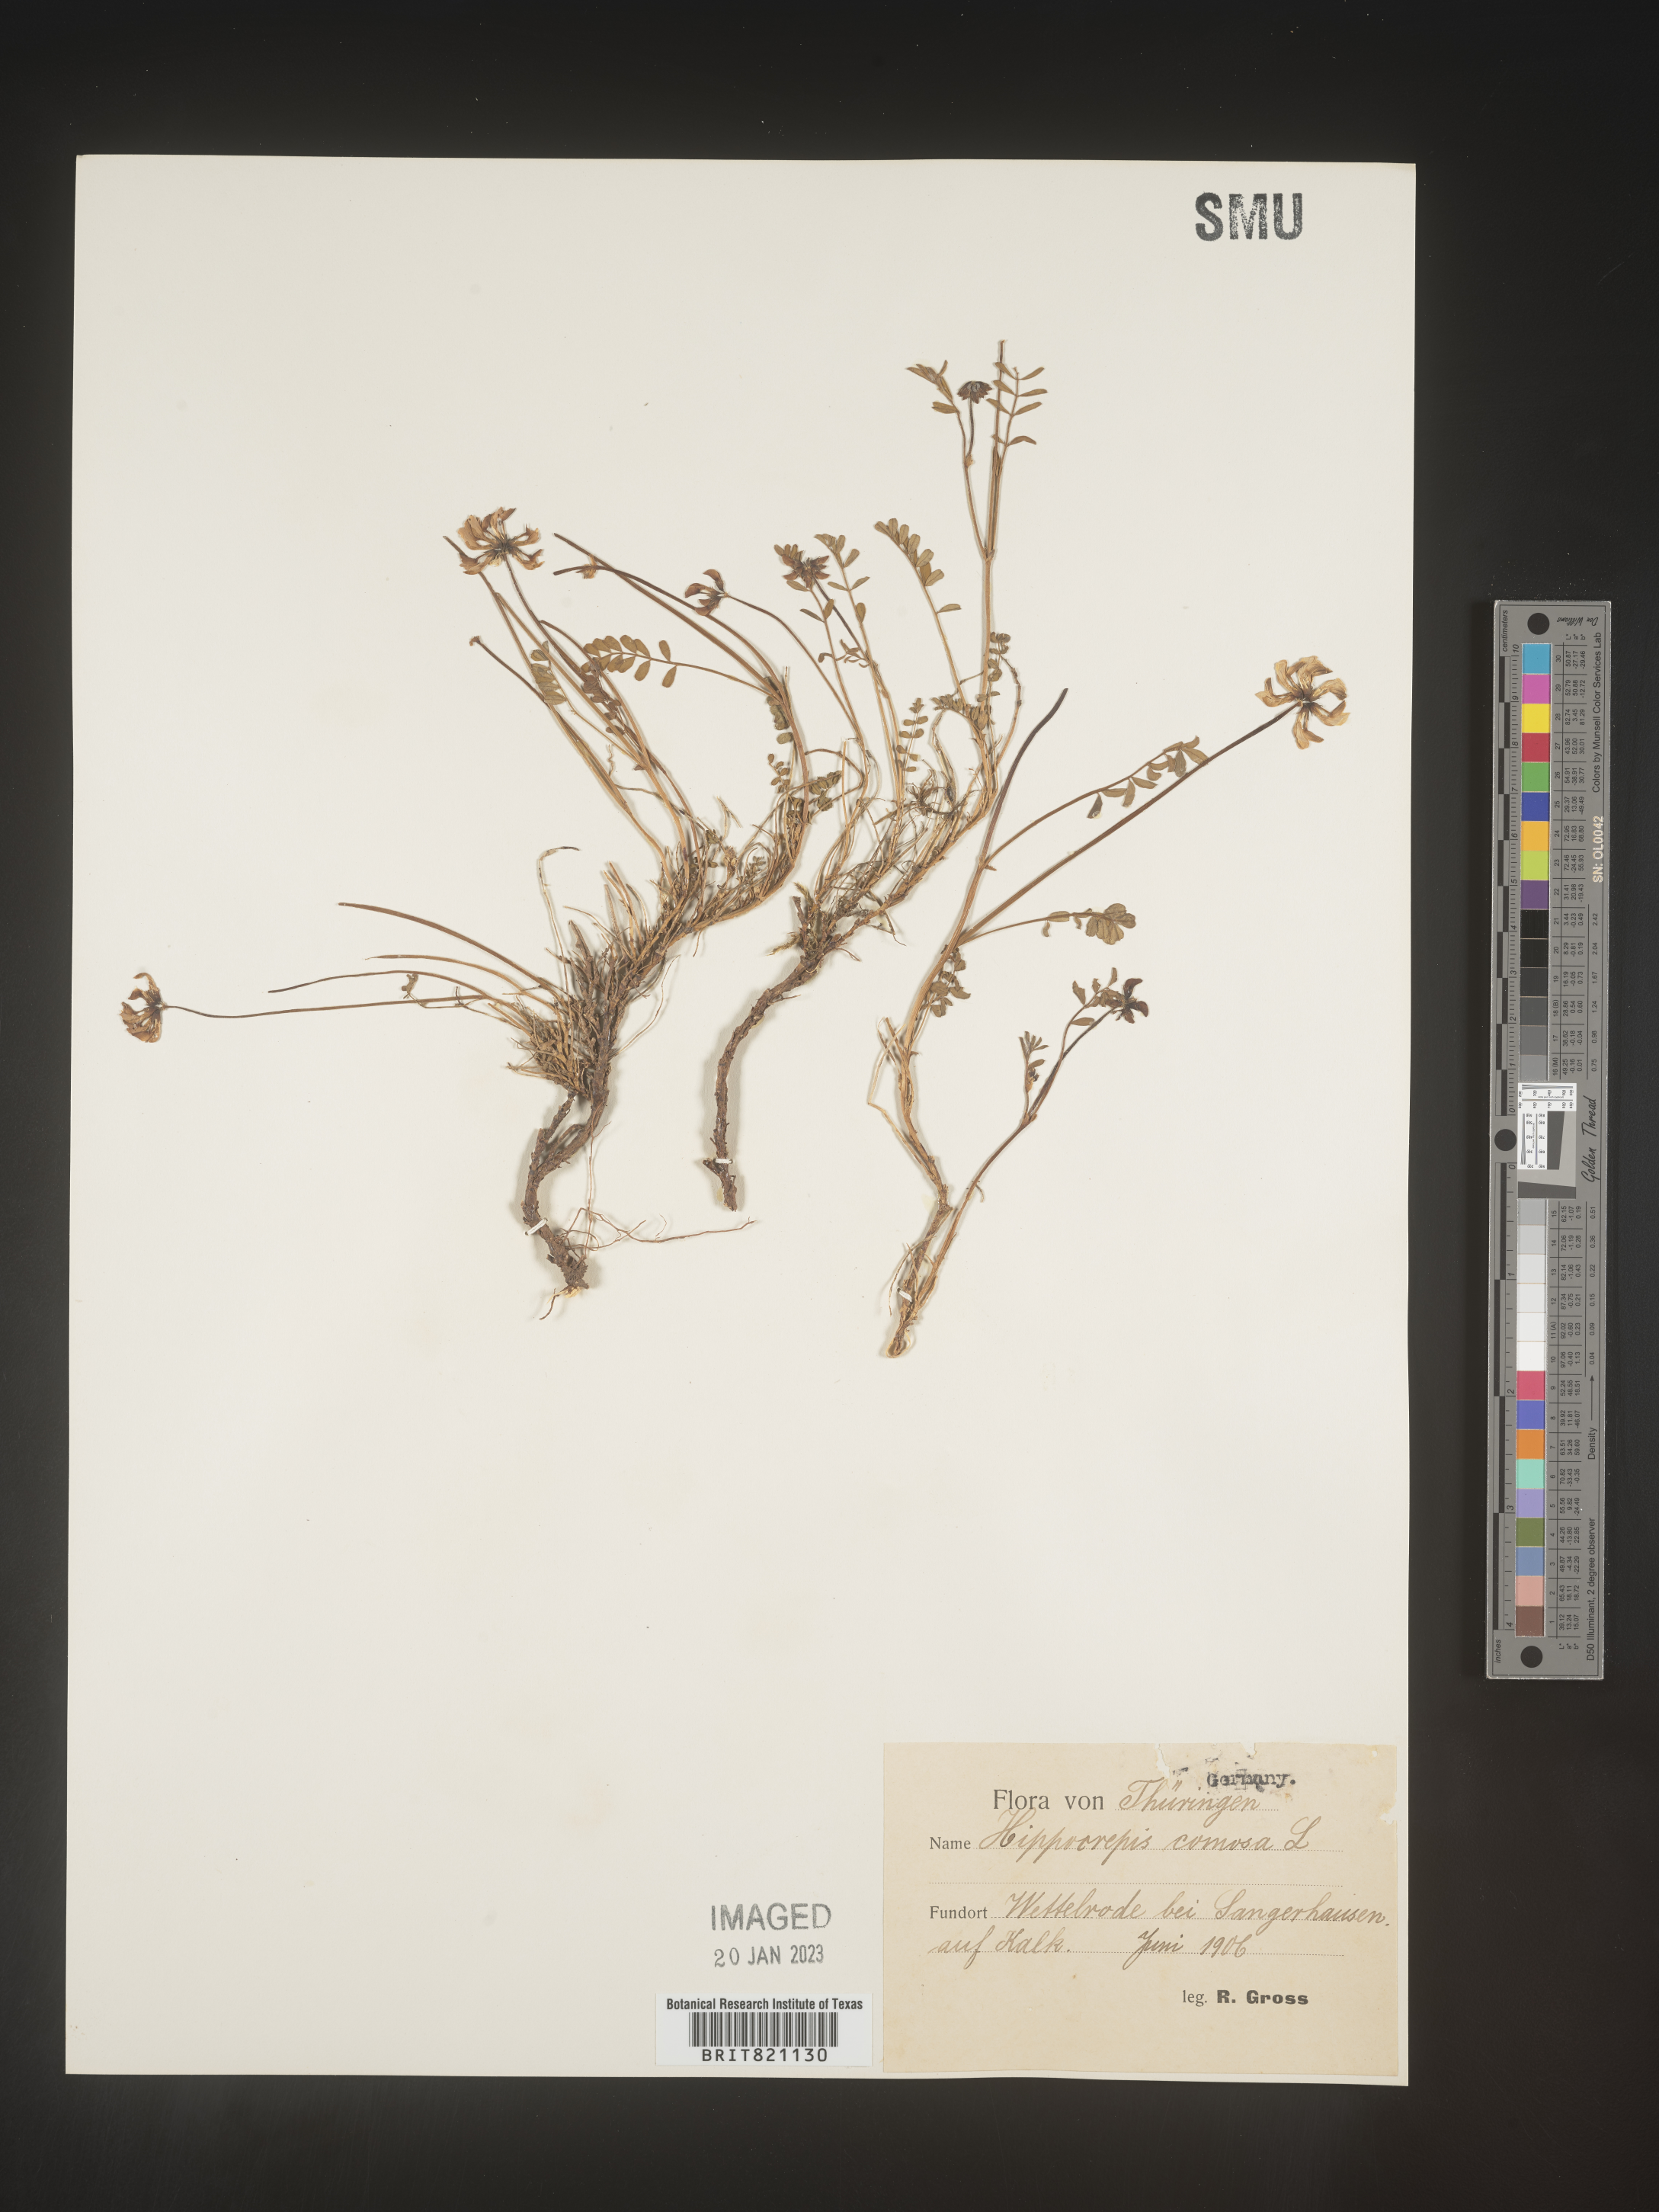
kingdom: Plantae
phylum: Tracheophyta
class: Magnoliopsida
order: Fabales
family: Fabaceae
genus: Hippocrepis
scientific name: Hippocrepis
